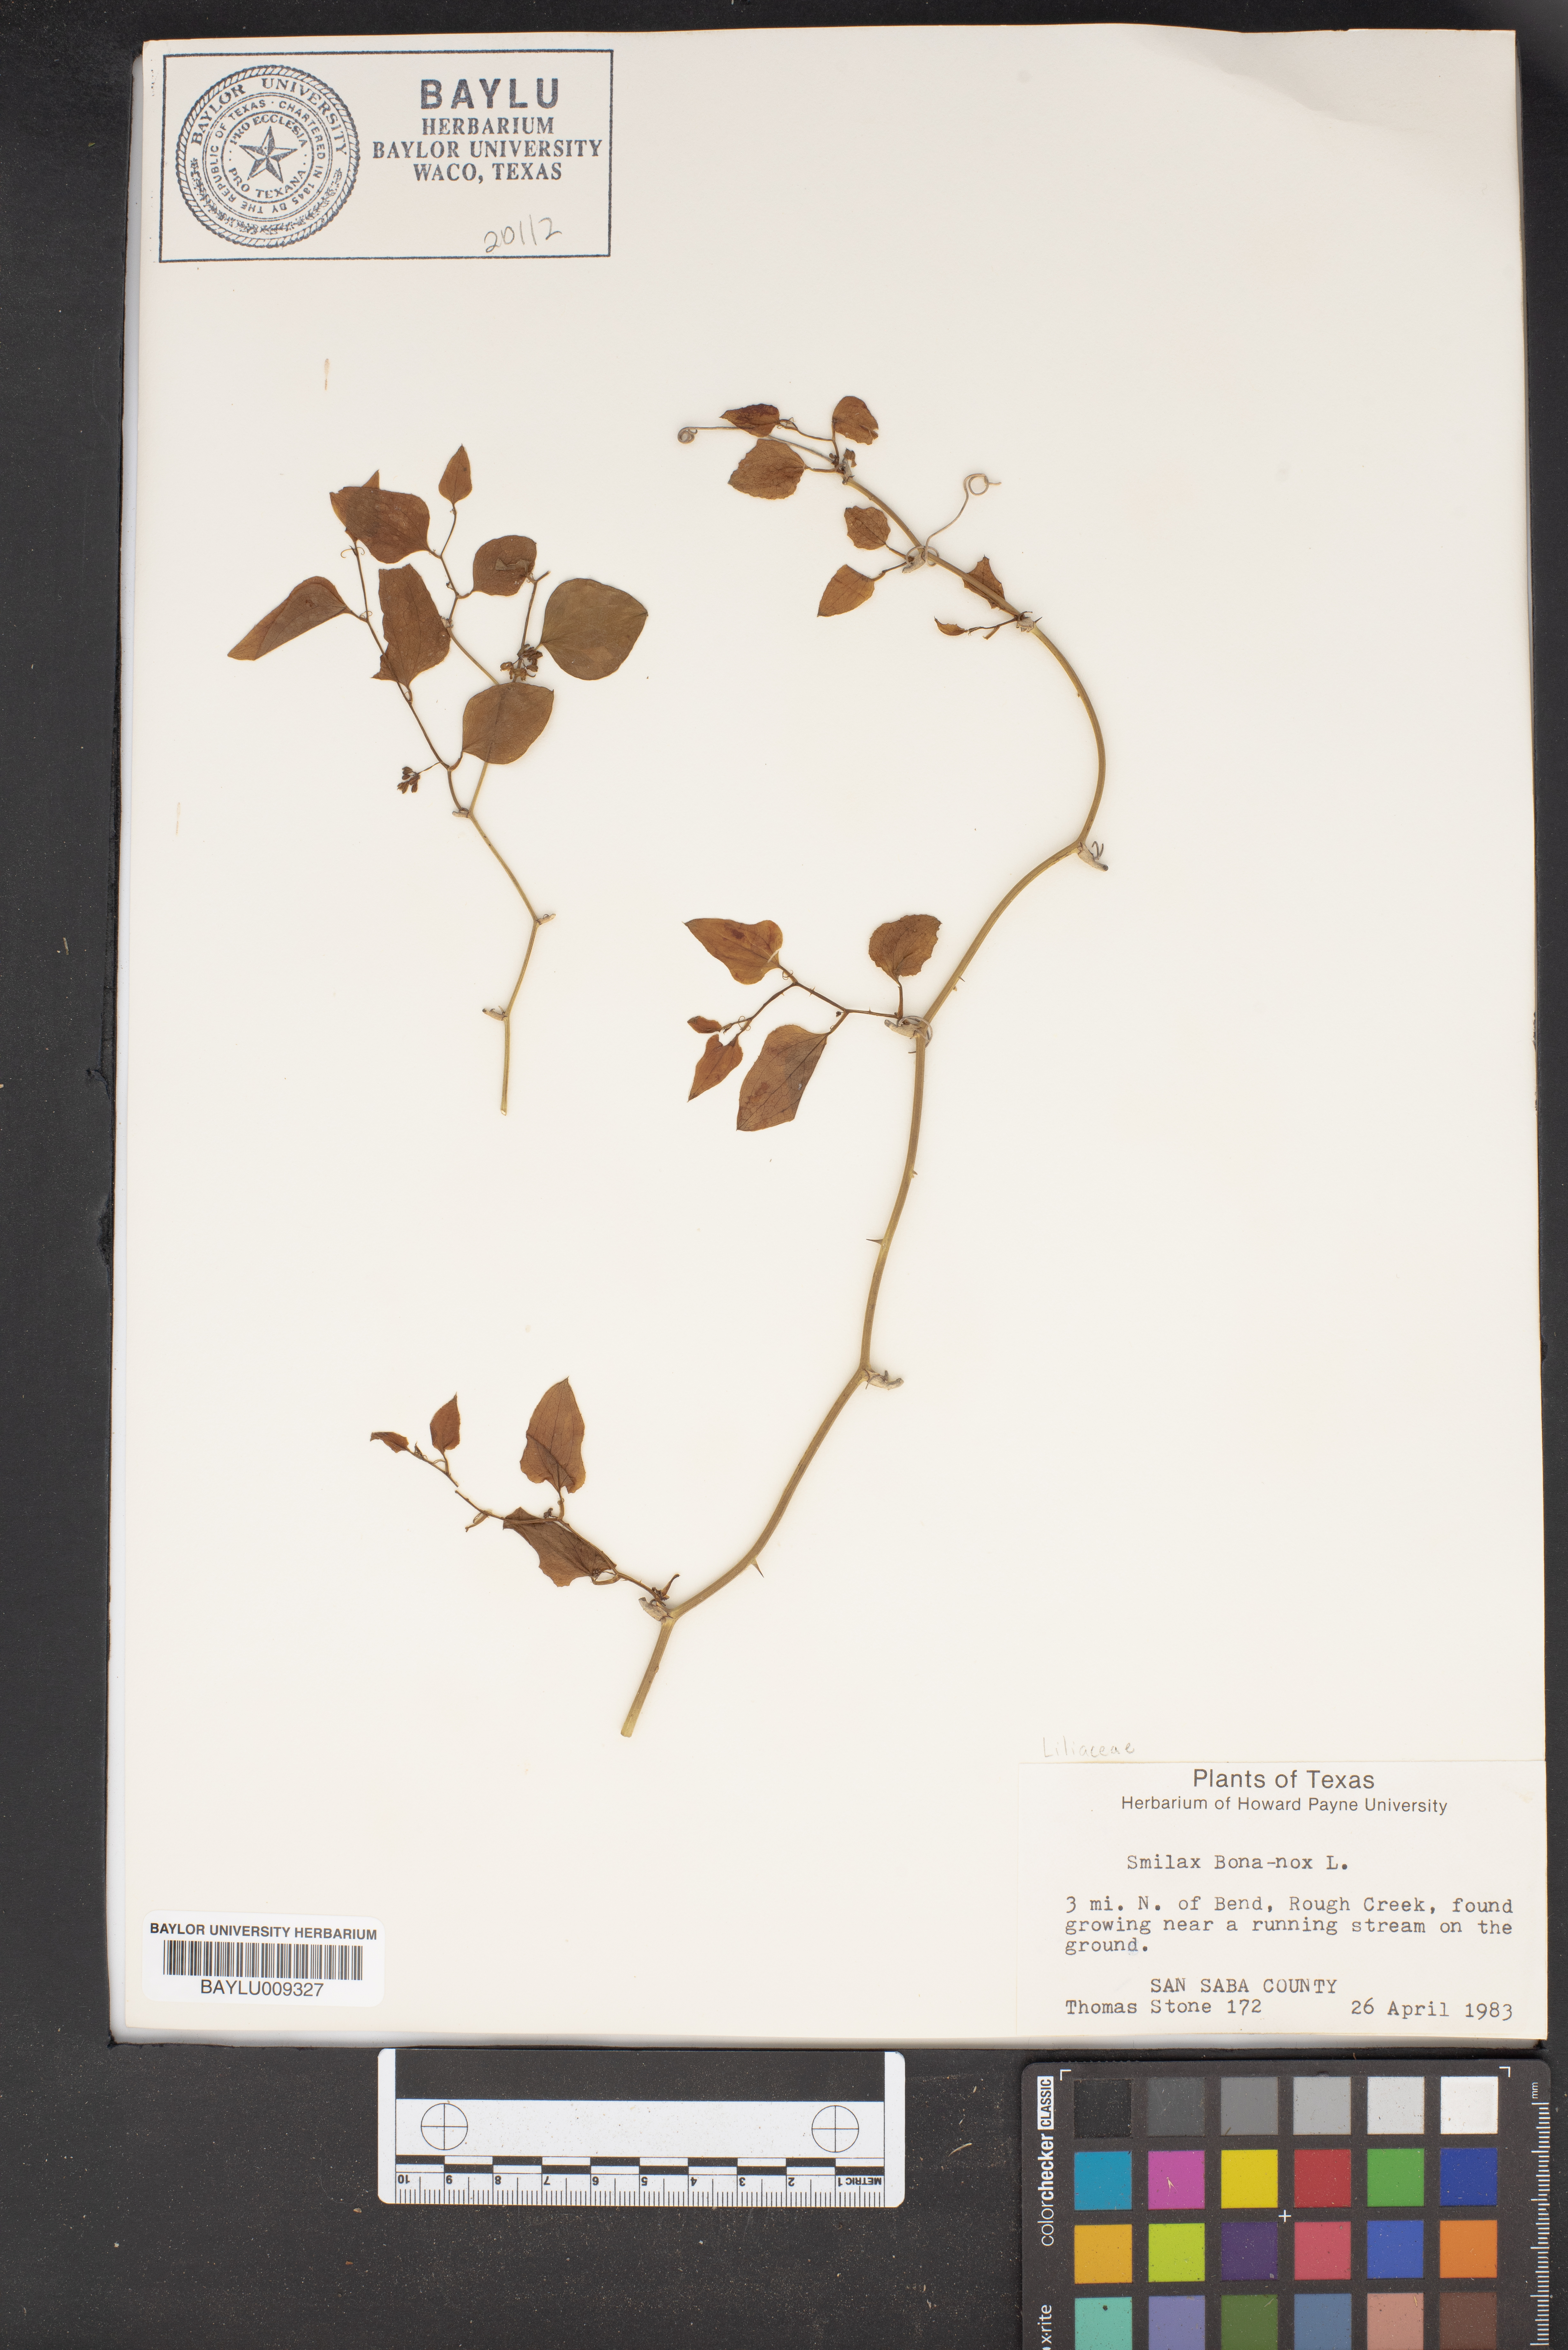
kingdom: Plantae
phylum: Tracheophyta
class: Liliopsida
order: Liliales
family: Smilacaceae
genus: Smilax
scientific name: Smilax bona-nox
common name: Catbrier
